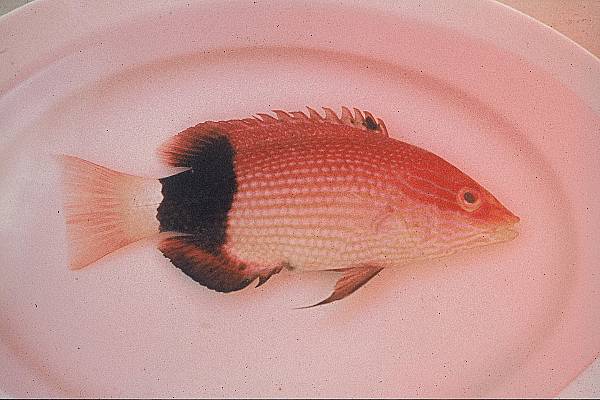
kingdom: Animalia
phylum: Chordata
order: Perciformes
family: Labridae
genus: Bodianus
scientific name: Bodianus bilunulatus
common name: Tarry hogfish
